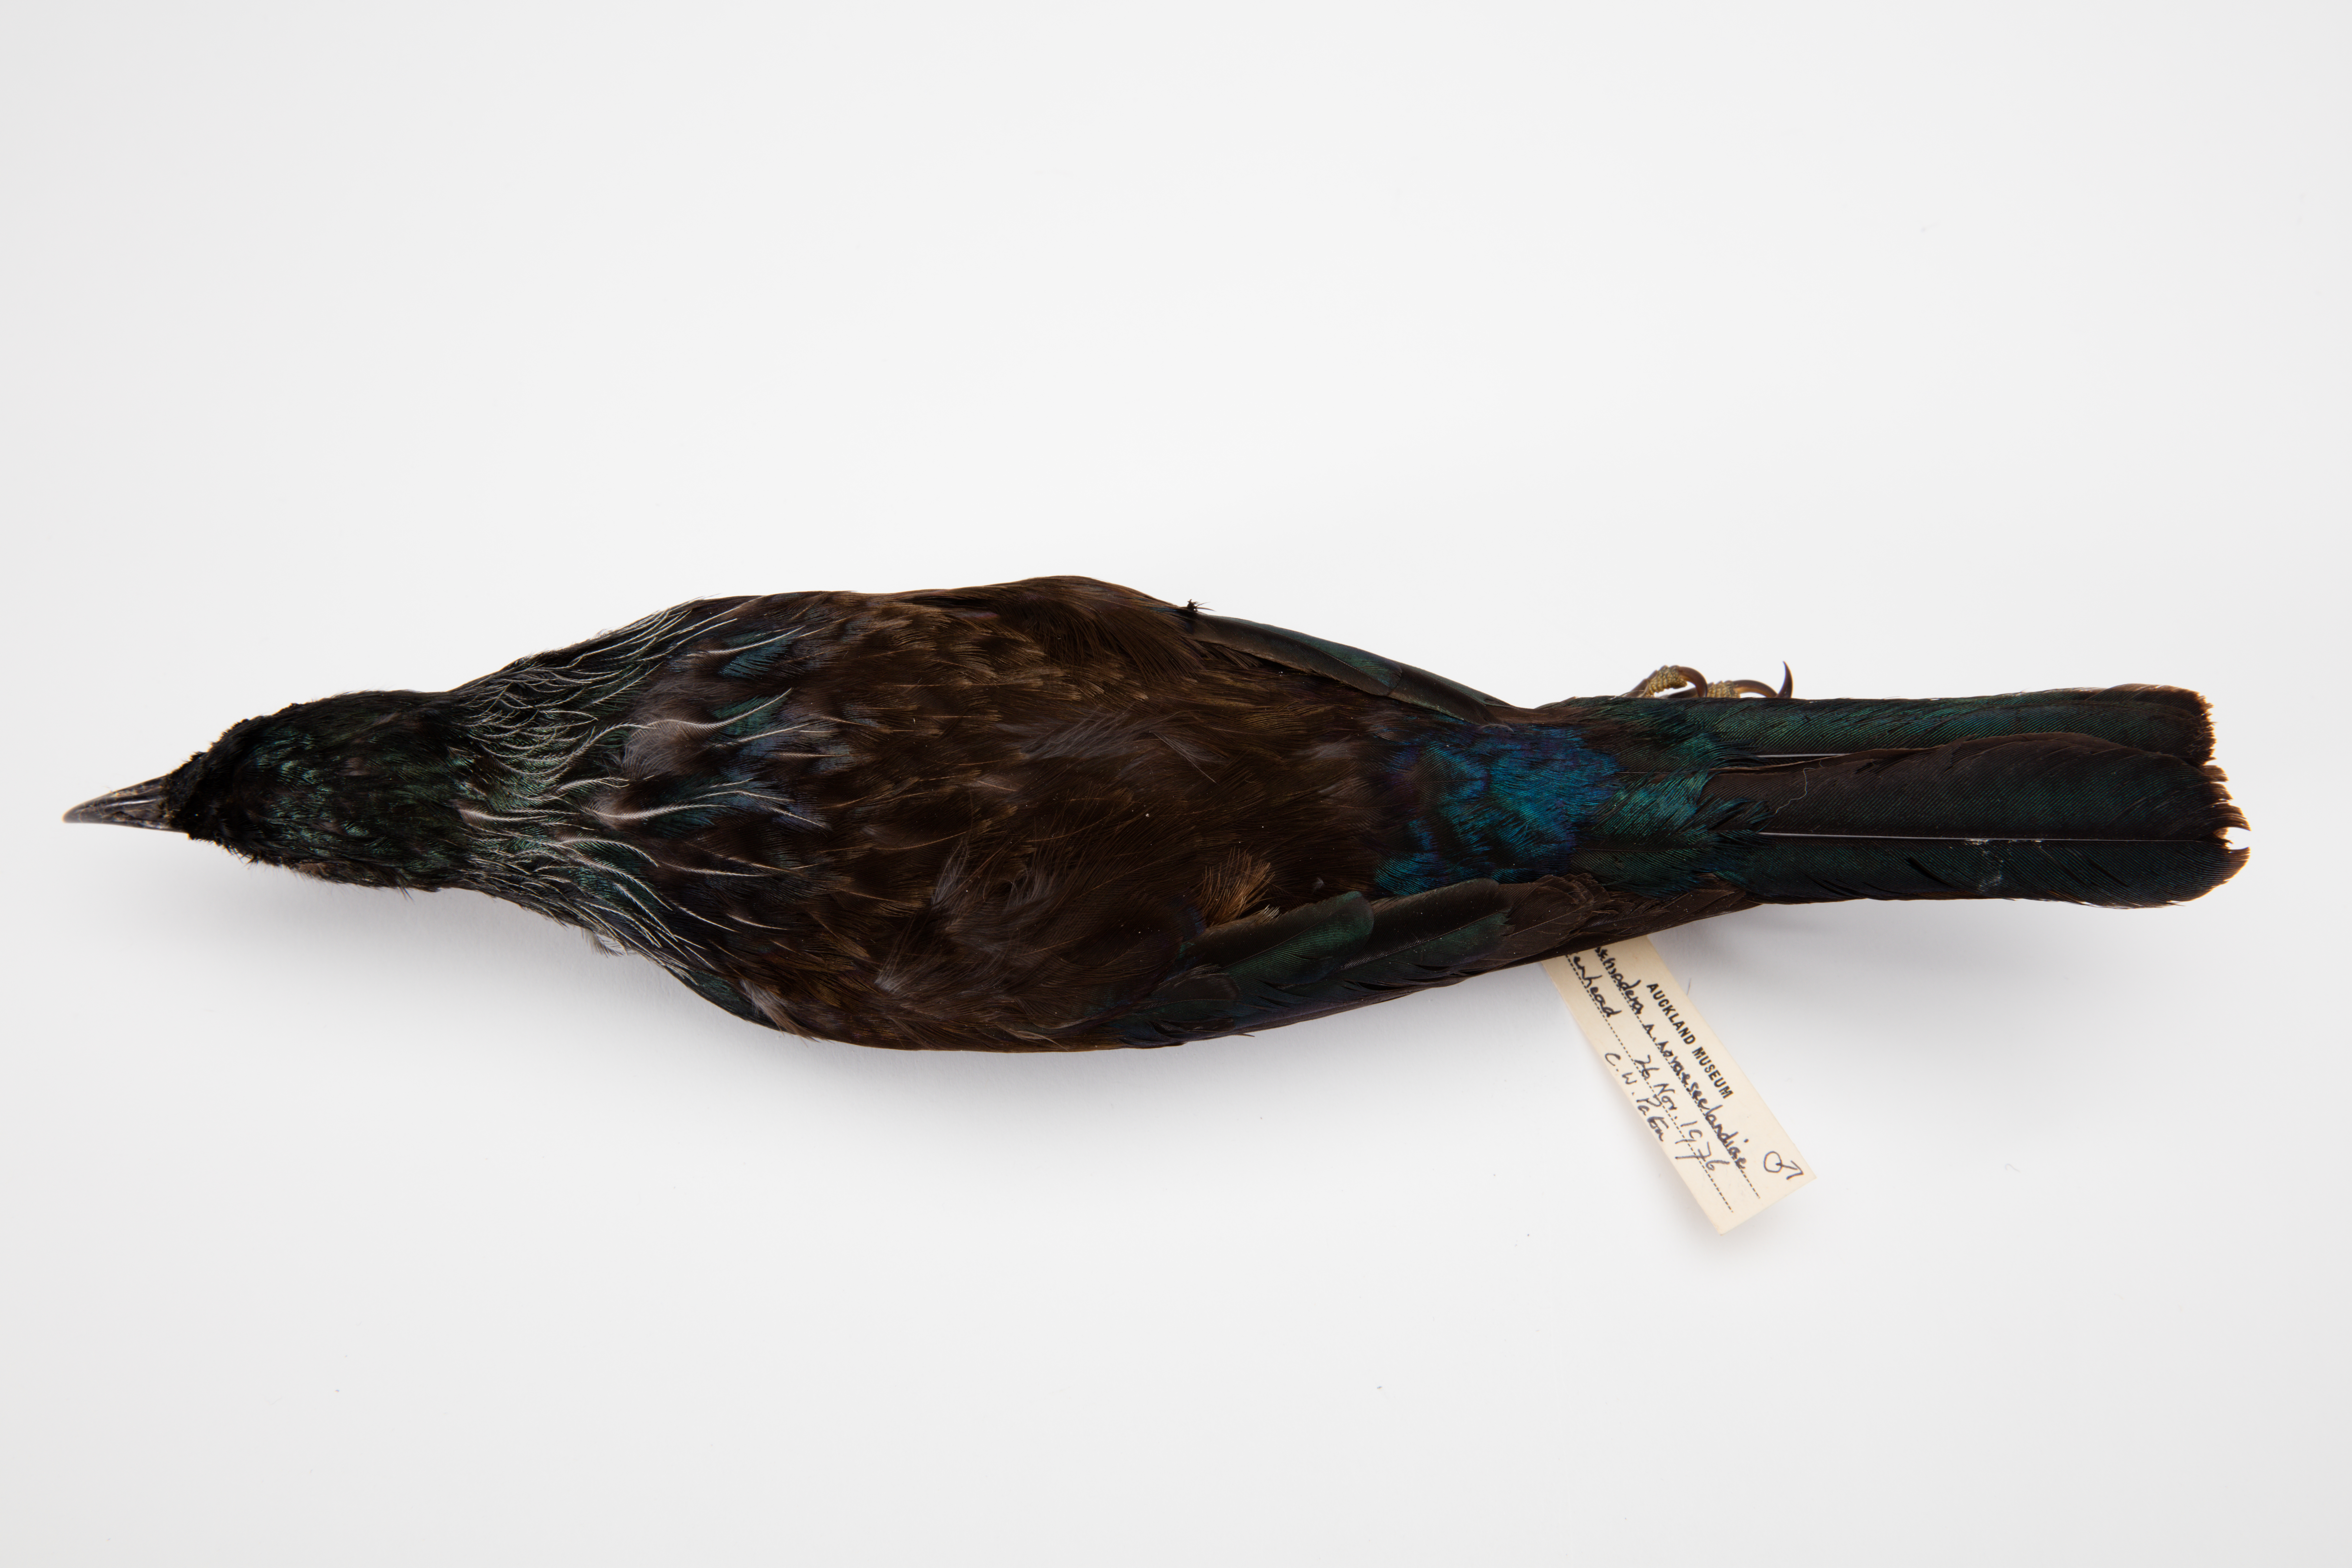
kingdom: Animalia
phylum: Chordata
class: Aves
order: Passeriformes
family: Meliphagidae
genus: Prosthemadera
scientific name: Prosthemadera novaeseelandiae
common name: Tui
